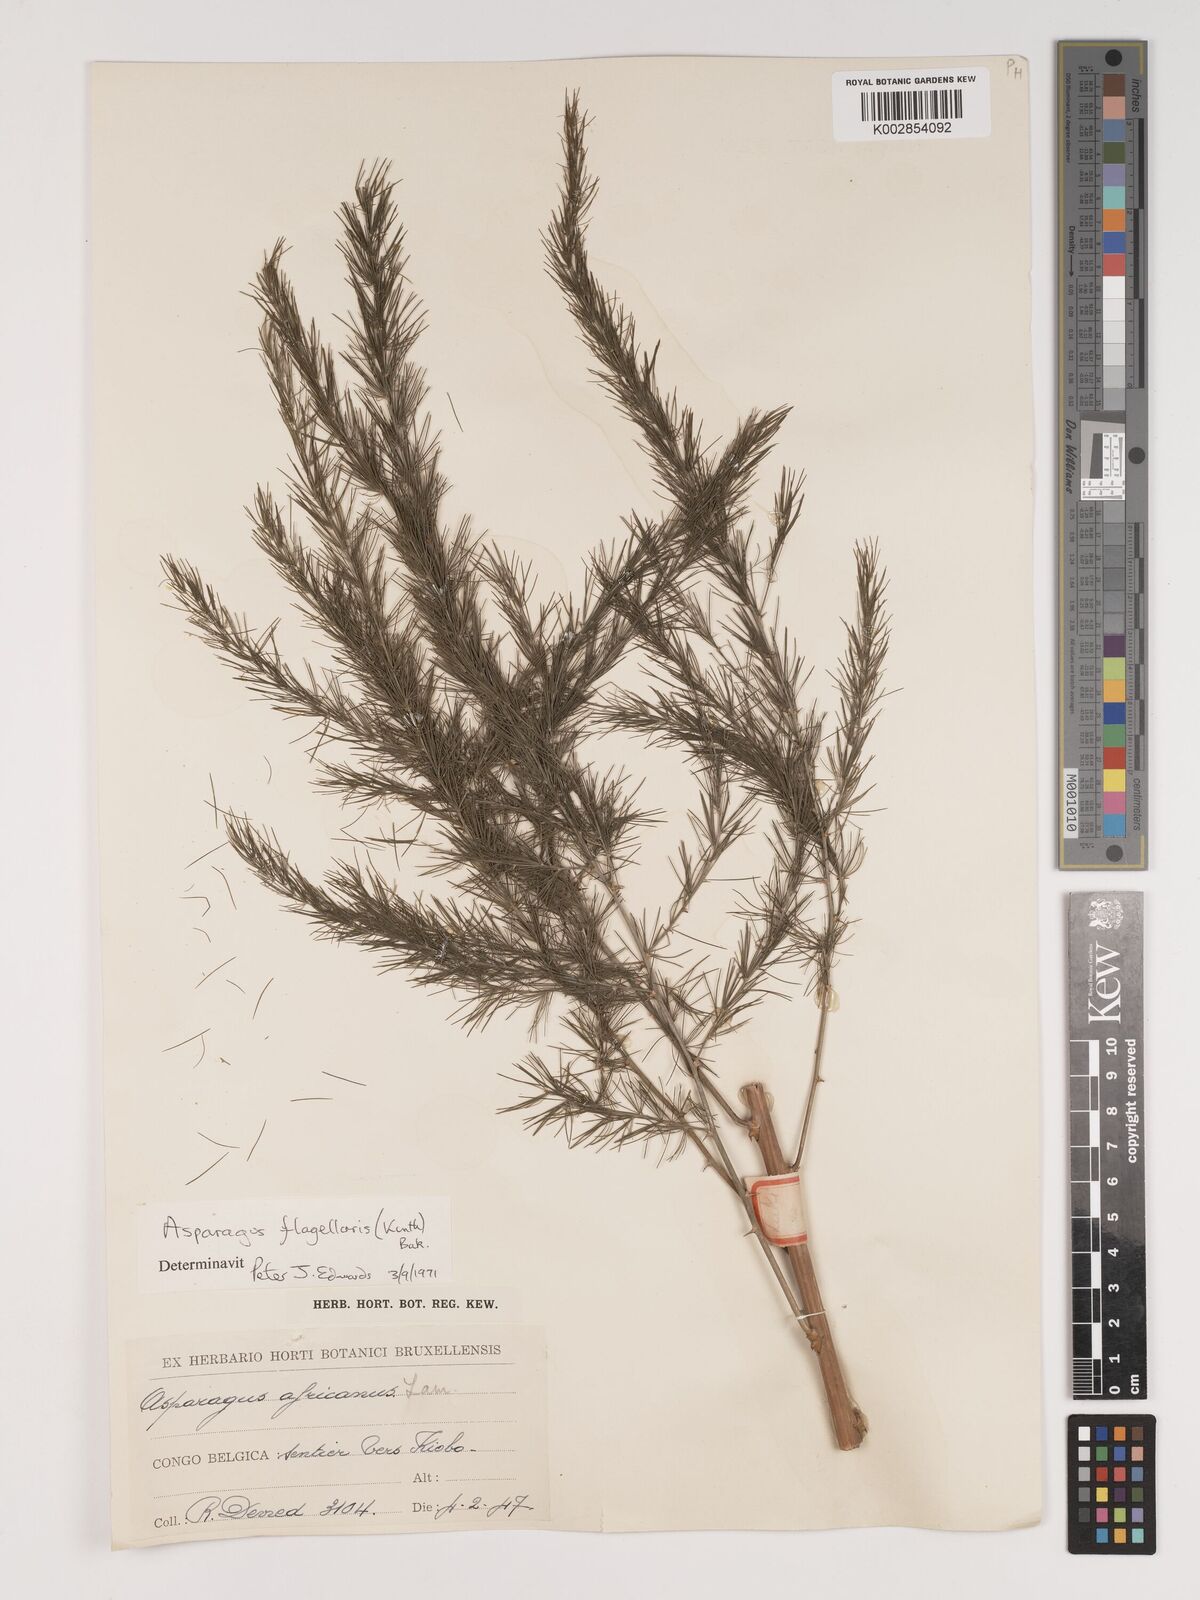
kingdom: Plantae
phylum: Tracheophyta
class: Liliopsida
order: Asparagales
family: Asparagaceae
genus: Asparagus
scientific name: Asparagus flagellaris
